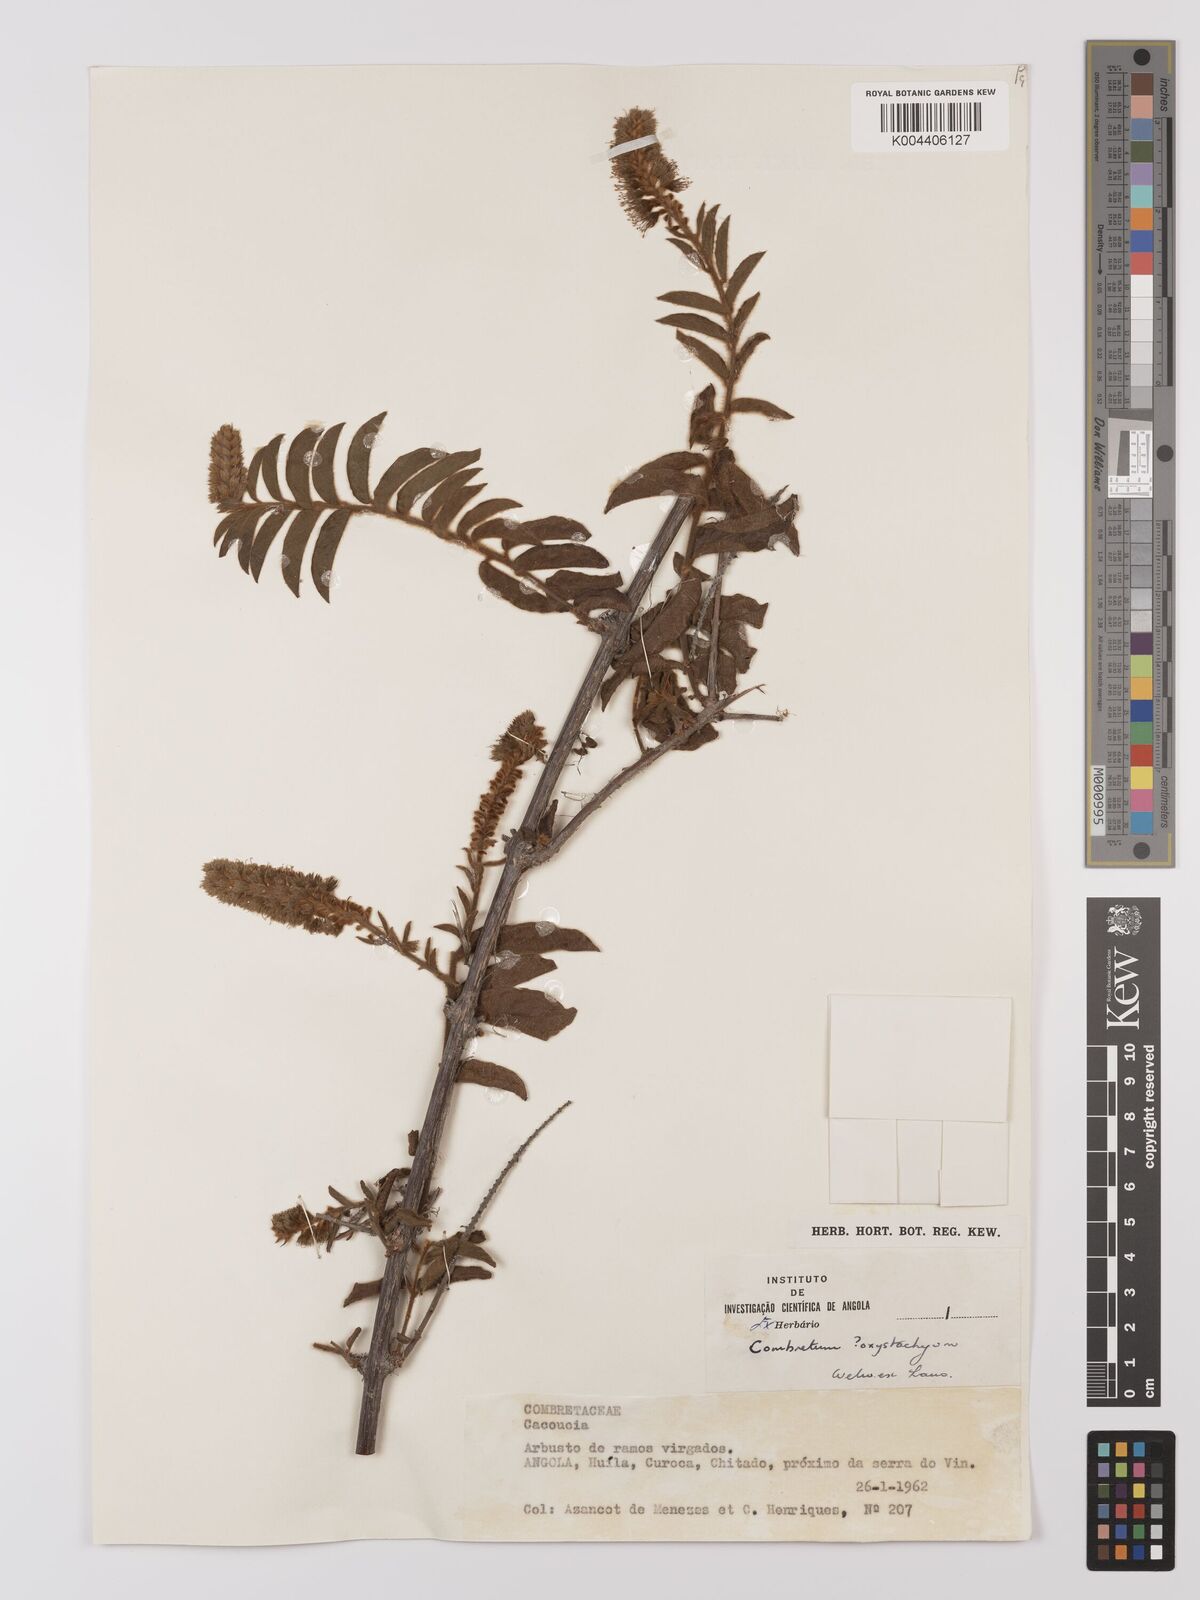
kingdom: Plantae
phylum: Tracheophyta
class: Magnoliopsida
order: Myrtales
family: Combretaceae
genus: Combretum
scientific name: Combretum oxystachyum
